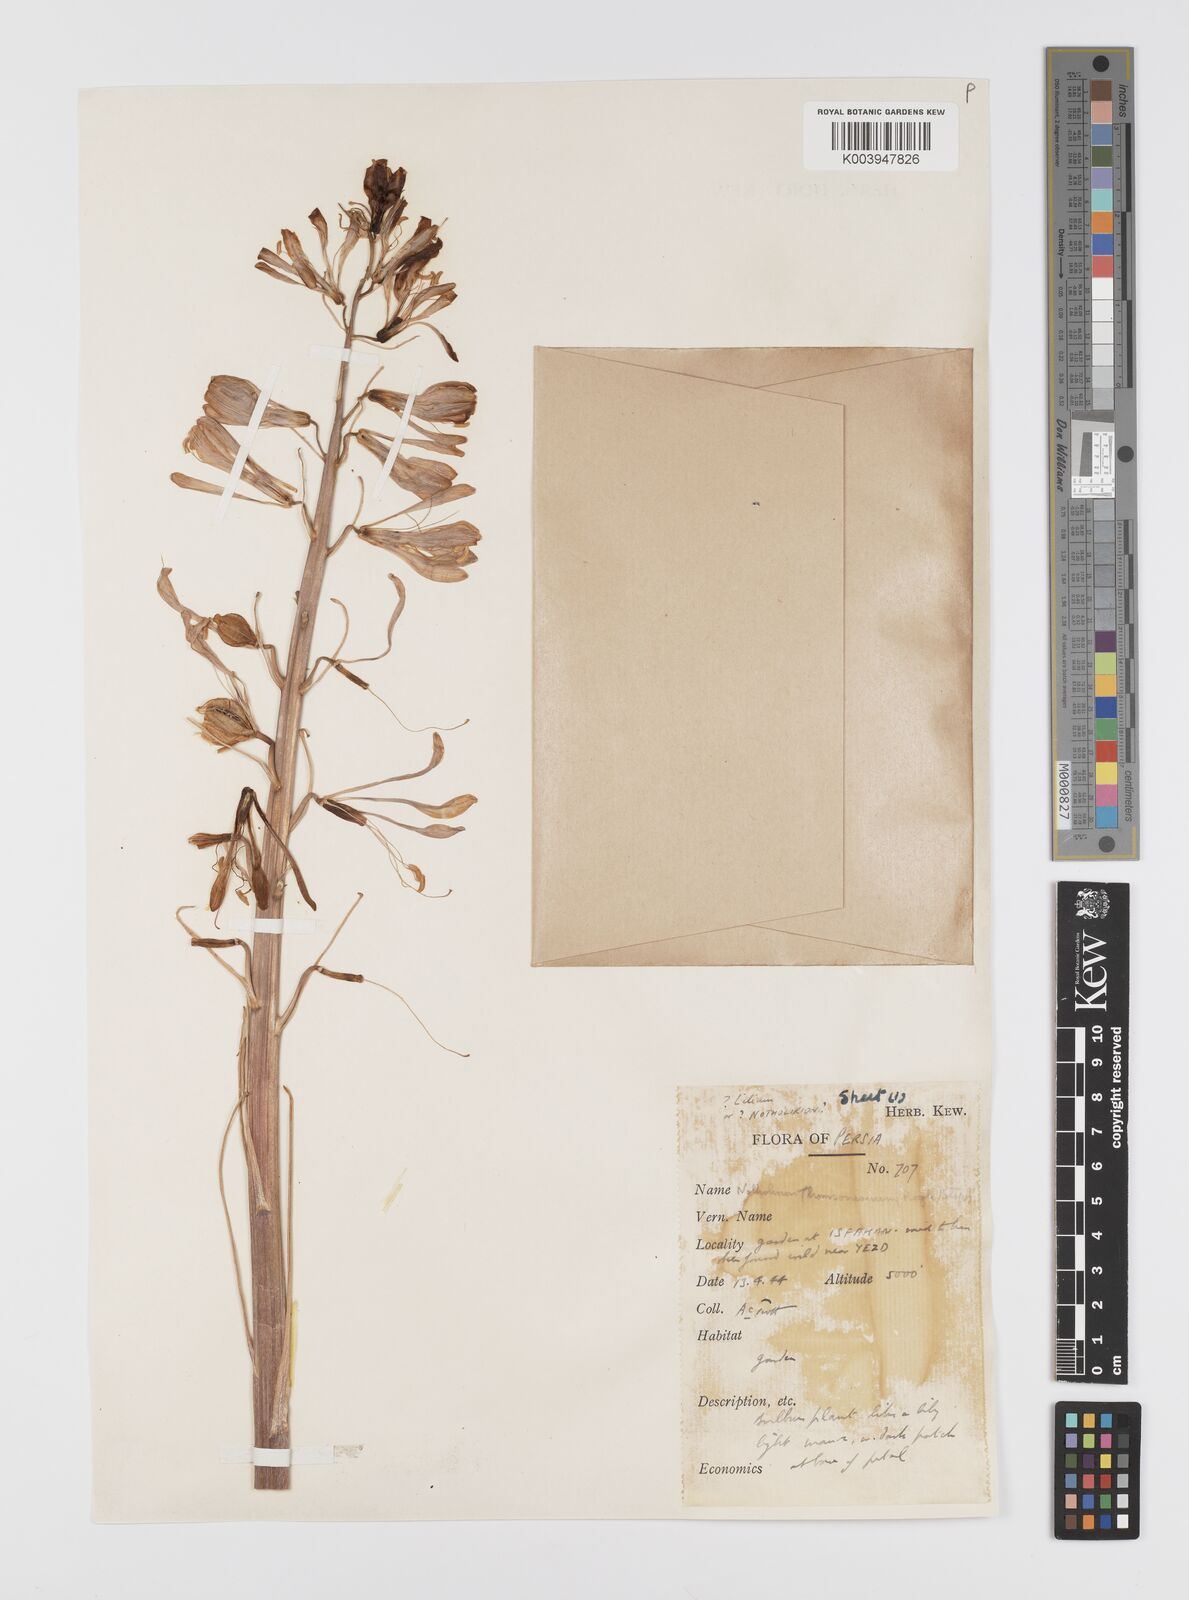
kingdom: Plantae
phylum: Tracheophyta
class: Liliopsida
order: Liliales
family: Liliaceae
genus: Notholirion
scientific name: Notholirion
